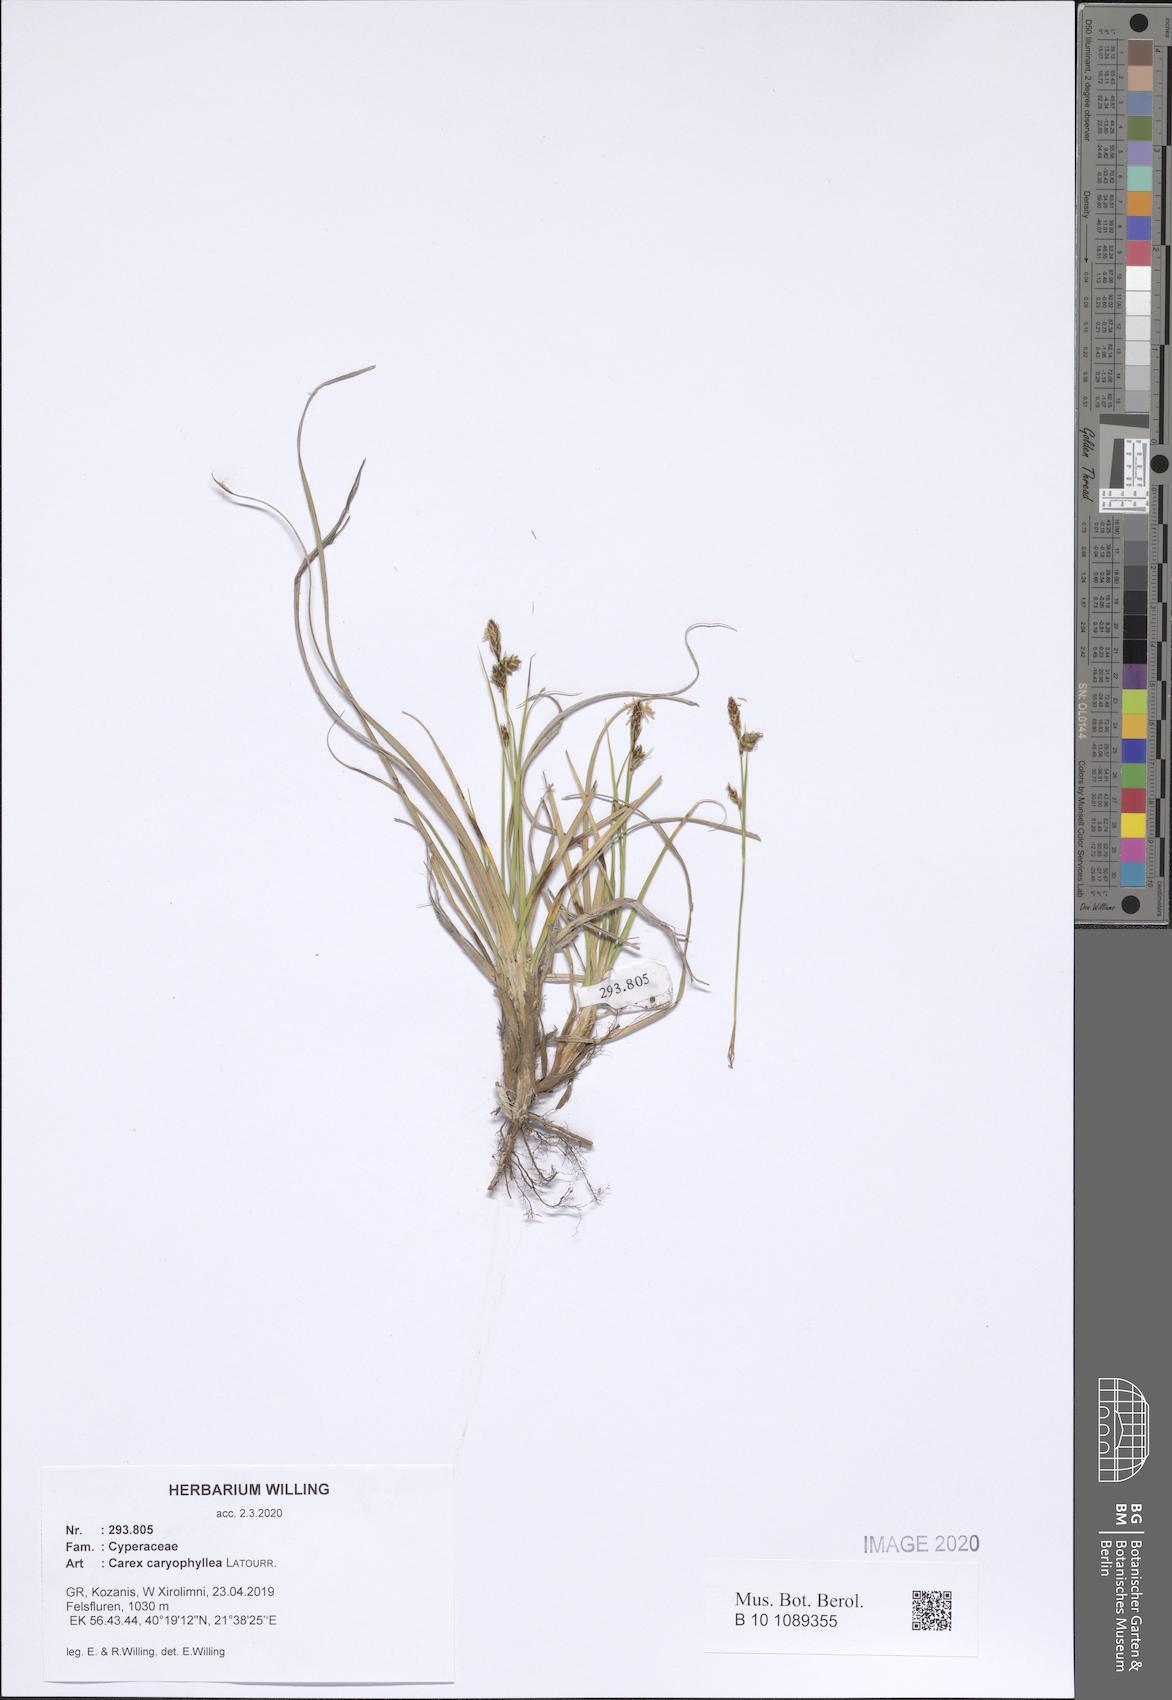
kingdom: Plantae
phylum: Tracheophyta
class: Liliopsida
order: Poales
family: Cyperaceae
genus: Carex
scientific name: Carex caryophyllea
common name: Spring sedge
